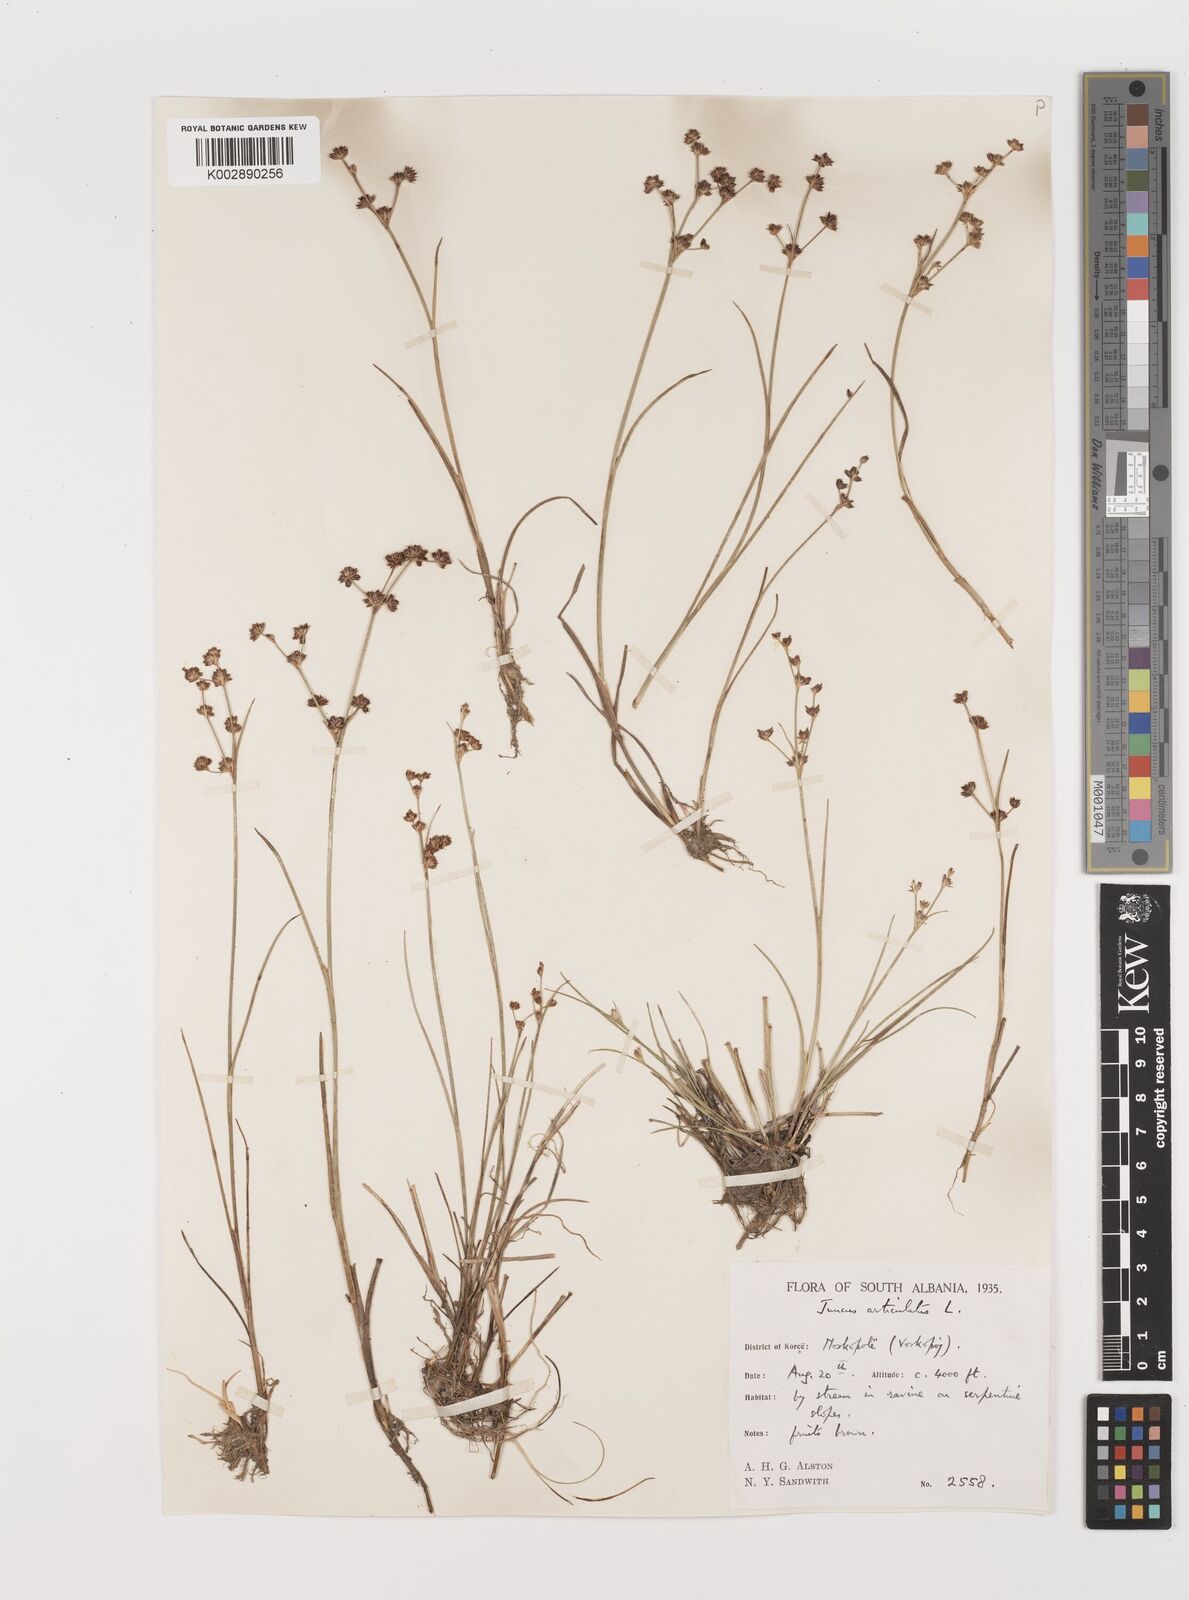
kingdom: Plantae
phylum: Tracheophyta
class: Liliopsida
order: Poales
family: Juncaceae
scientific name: Juncaceae
